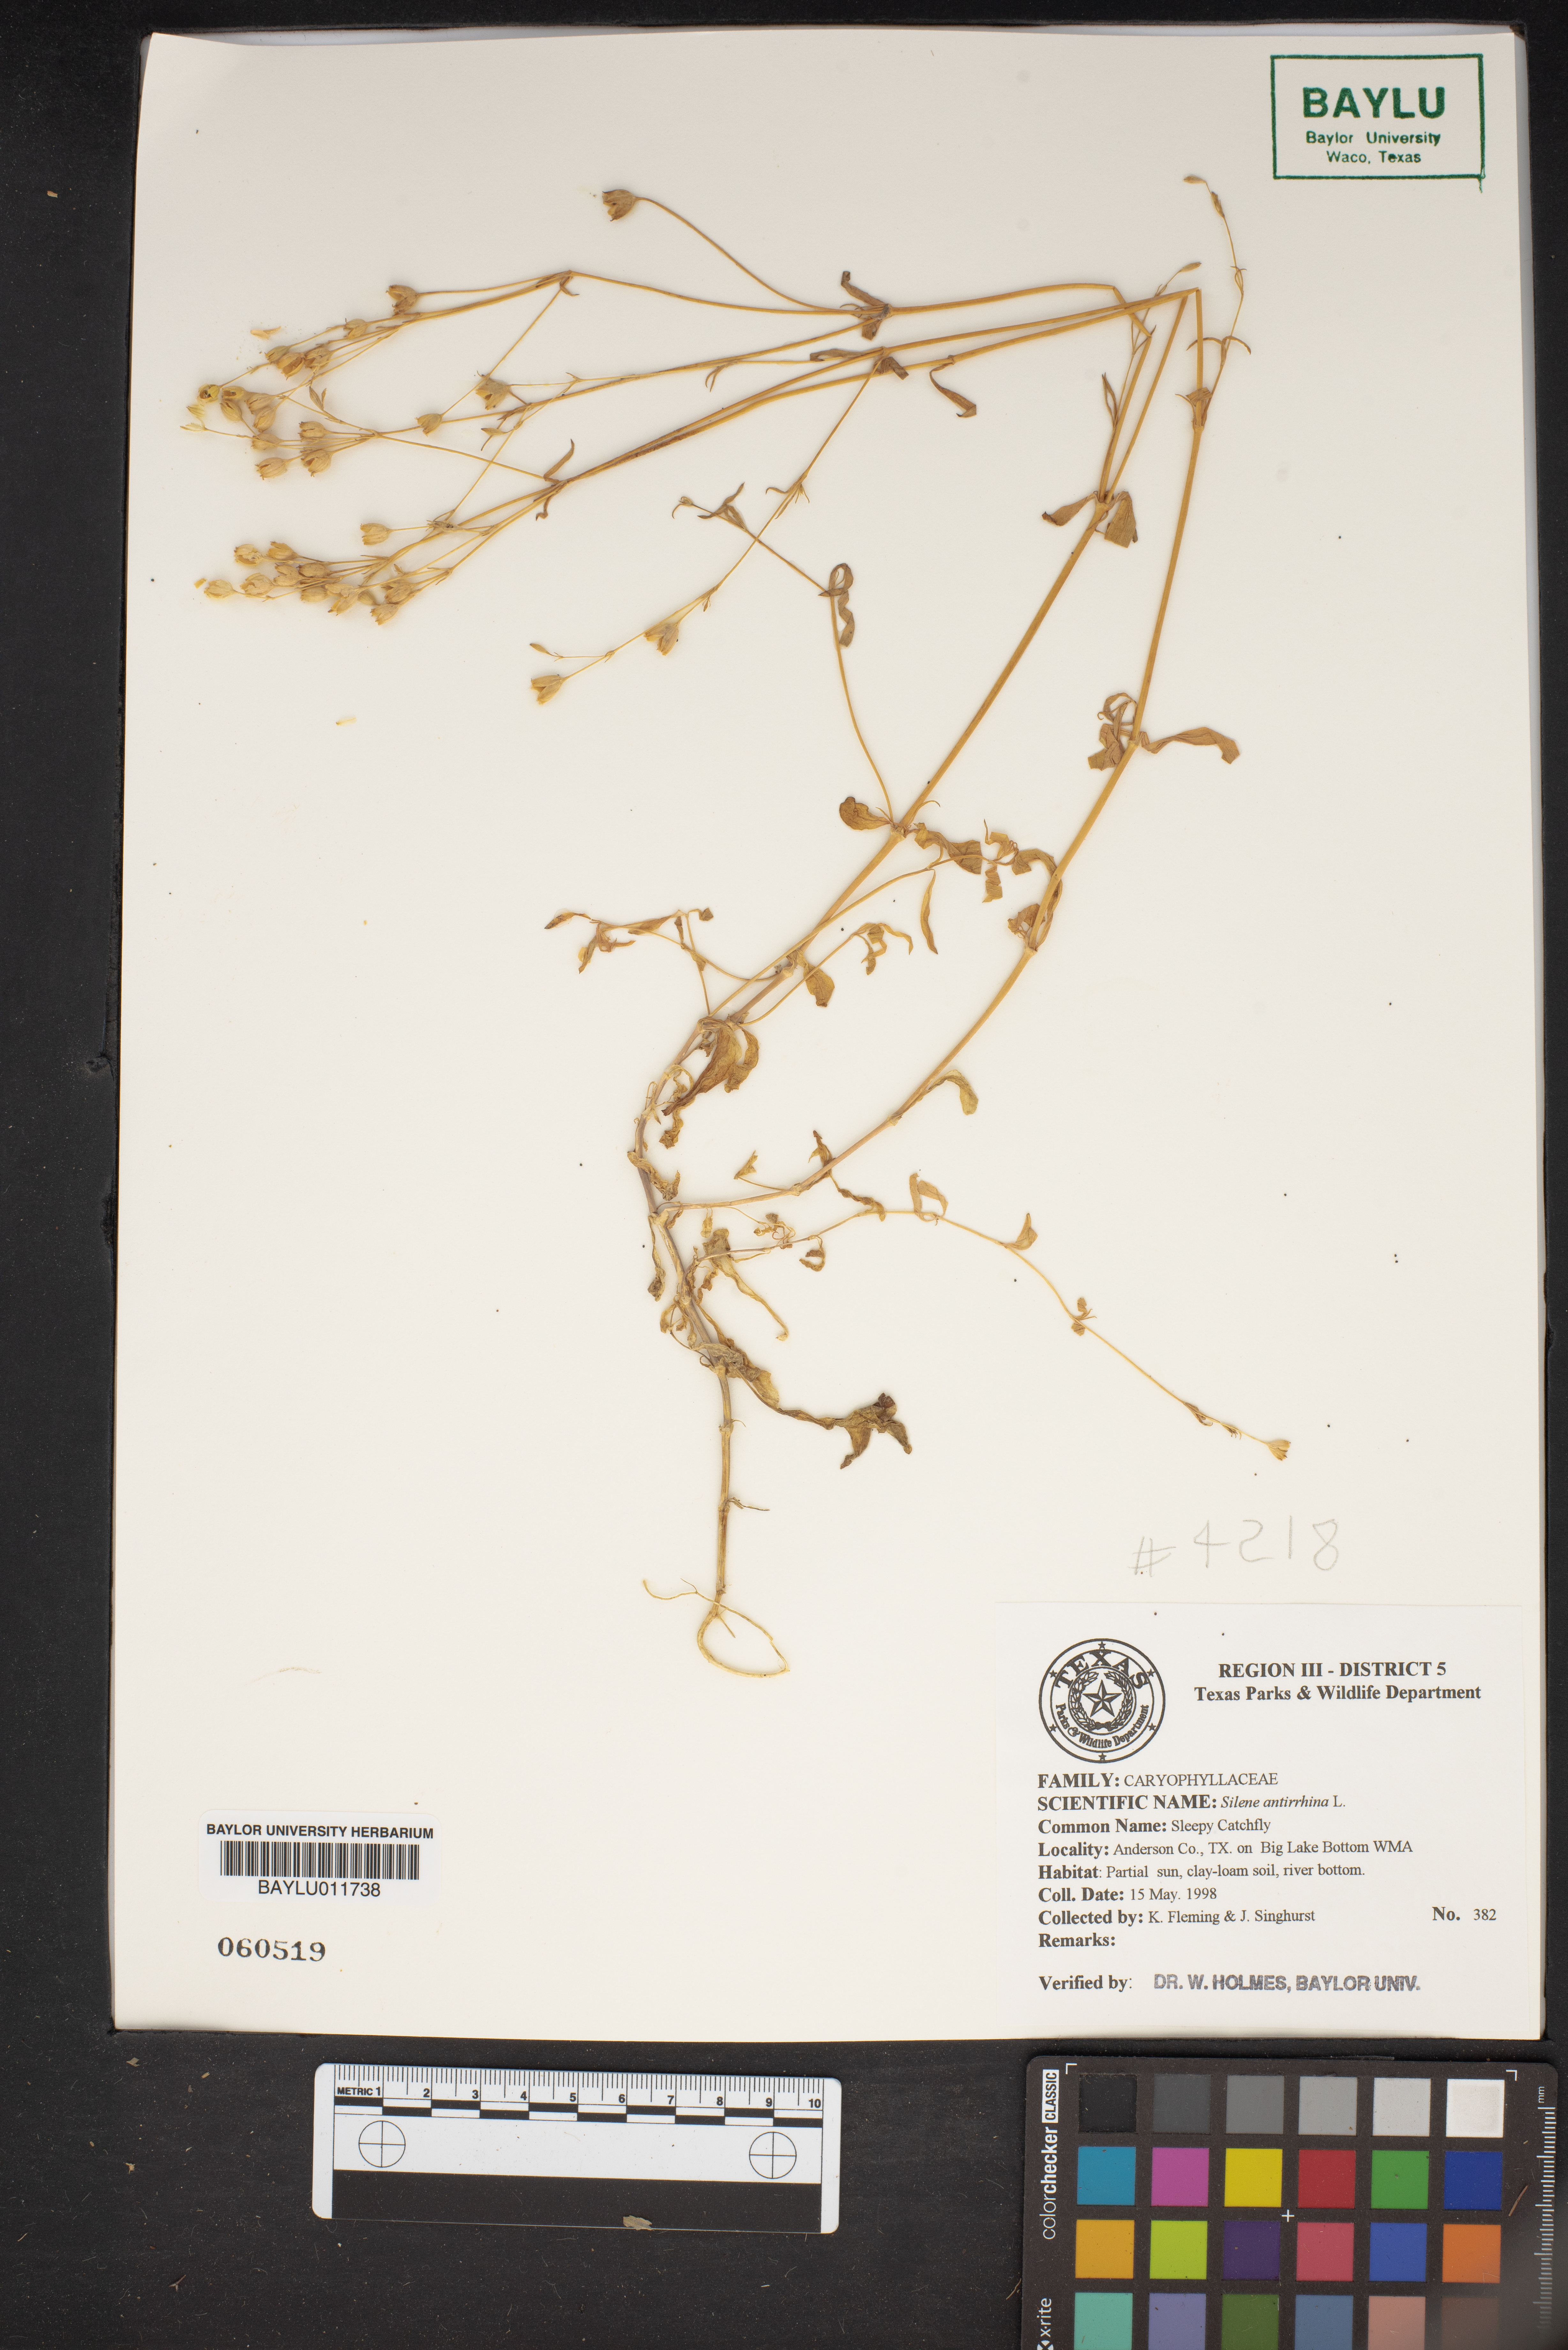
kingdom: Plantae
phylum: Tracheophyta
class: Magnoliopsida
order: Caryophyllales
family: Caryophyllaceae
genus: Silene
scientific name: Silene antirrhina
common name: Sleepy catchfly
